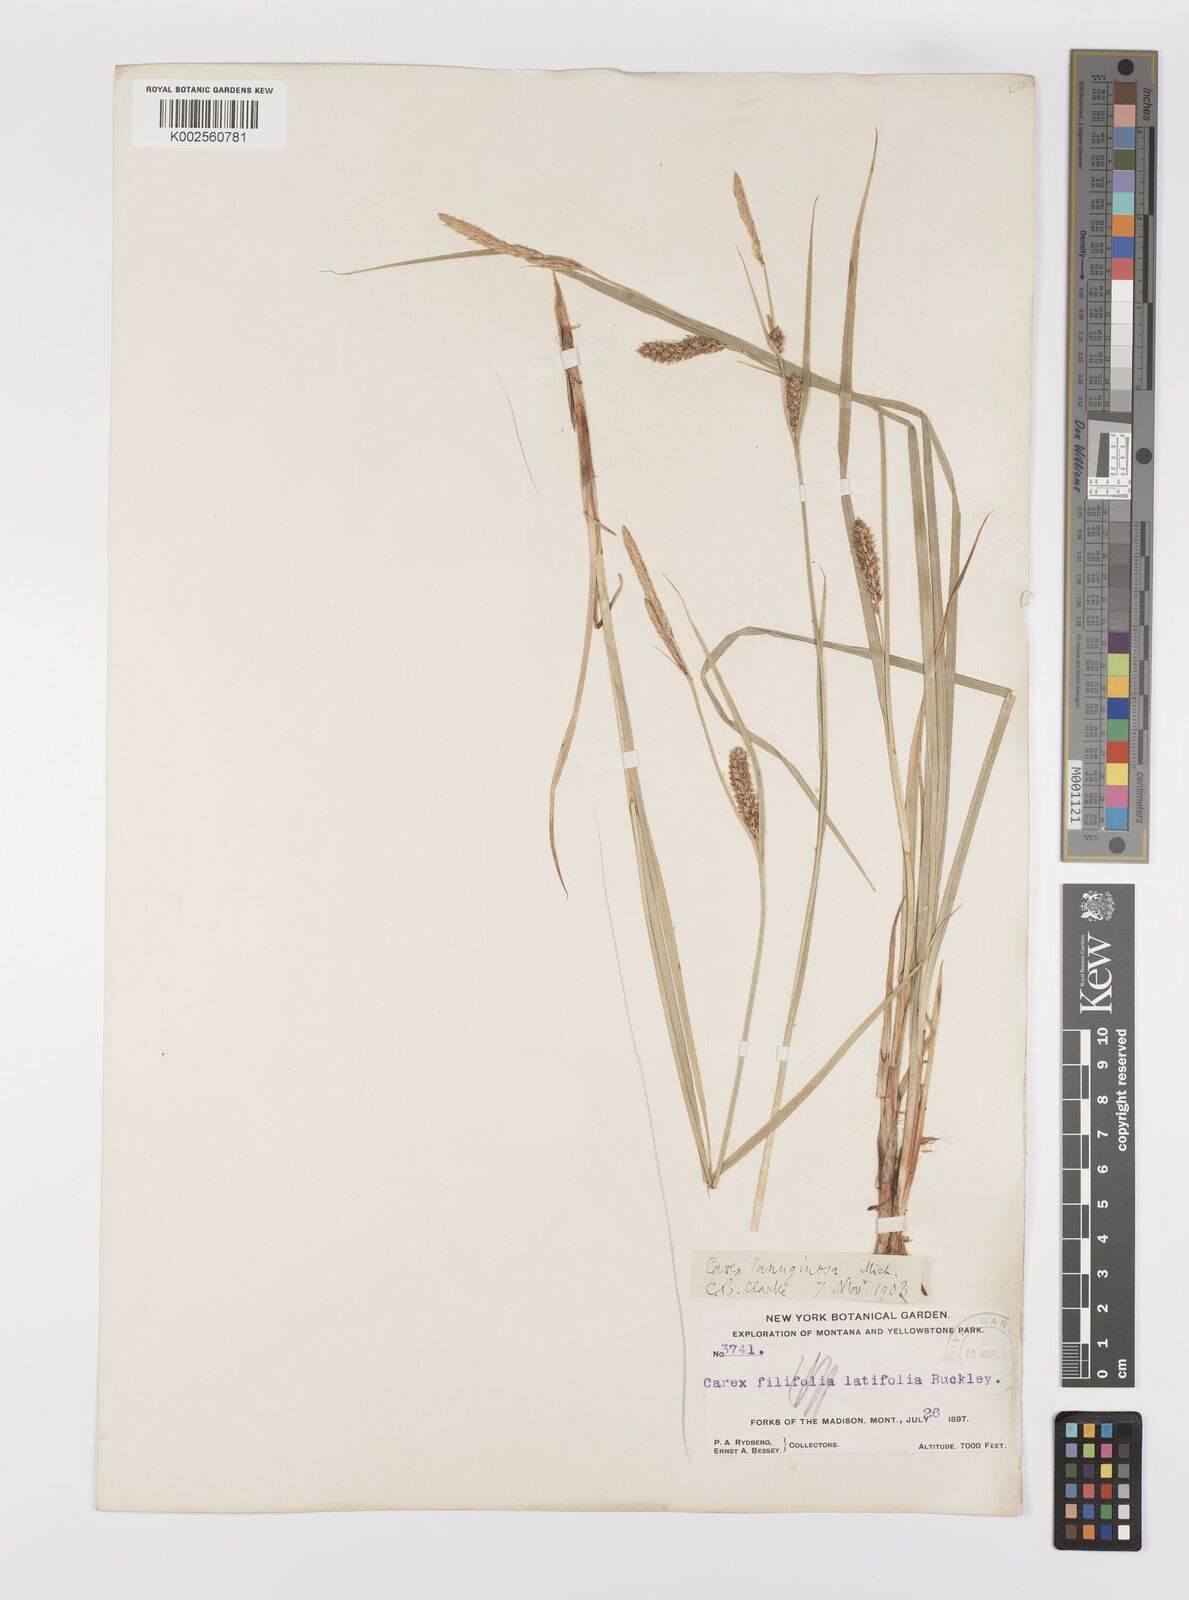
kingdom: Plantae
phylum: Tracheophyta
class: Liliopsida
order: Poales
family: Cyperaceae
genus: Carex
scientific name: Carex lasiocarpa
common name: Slender sedge
